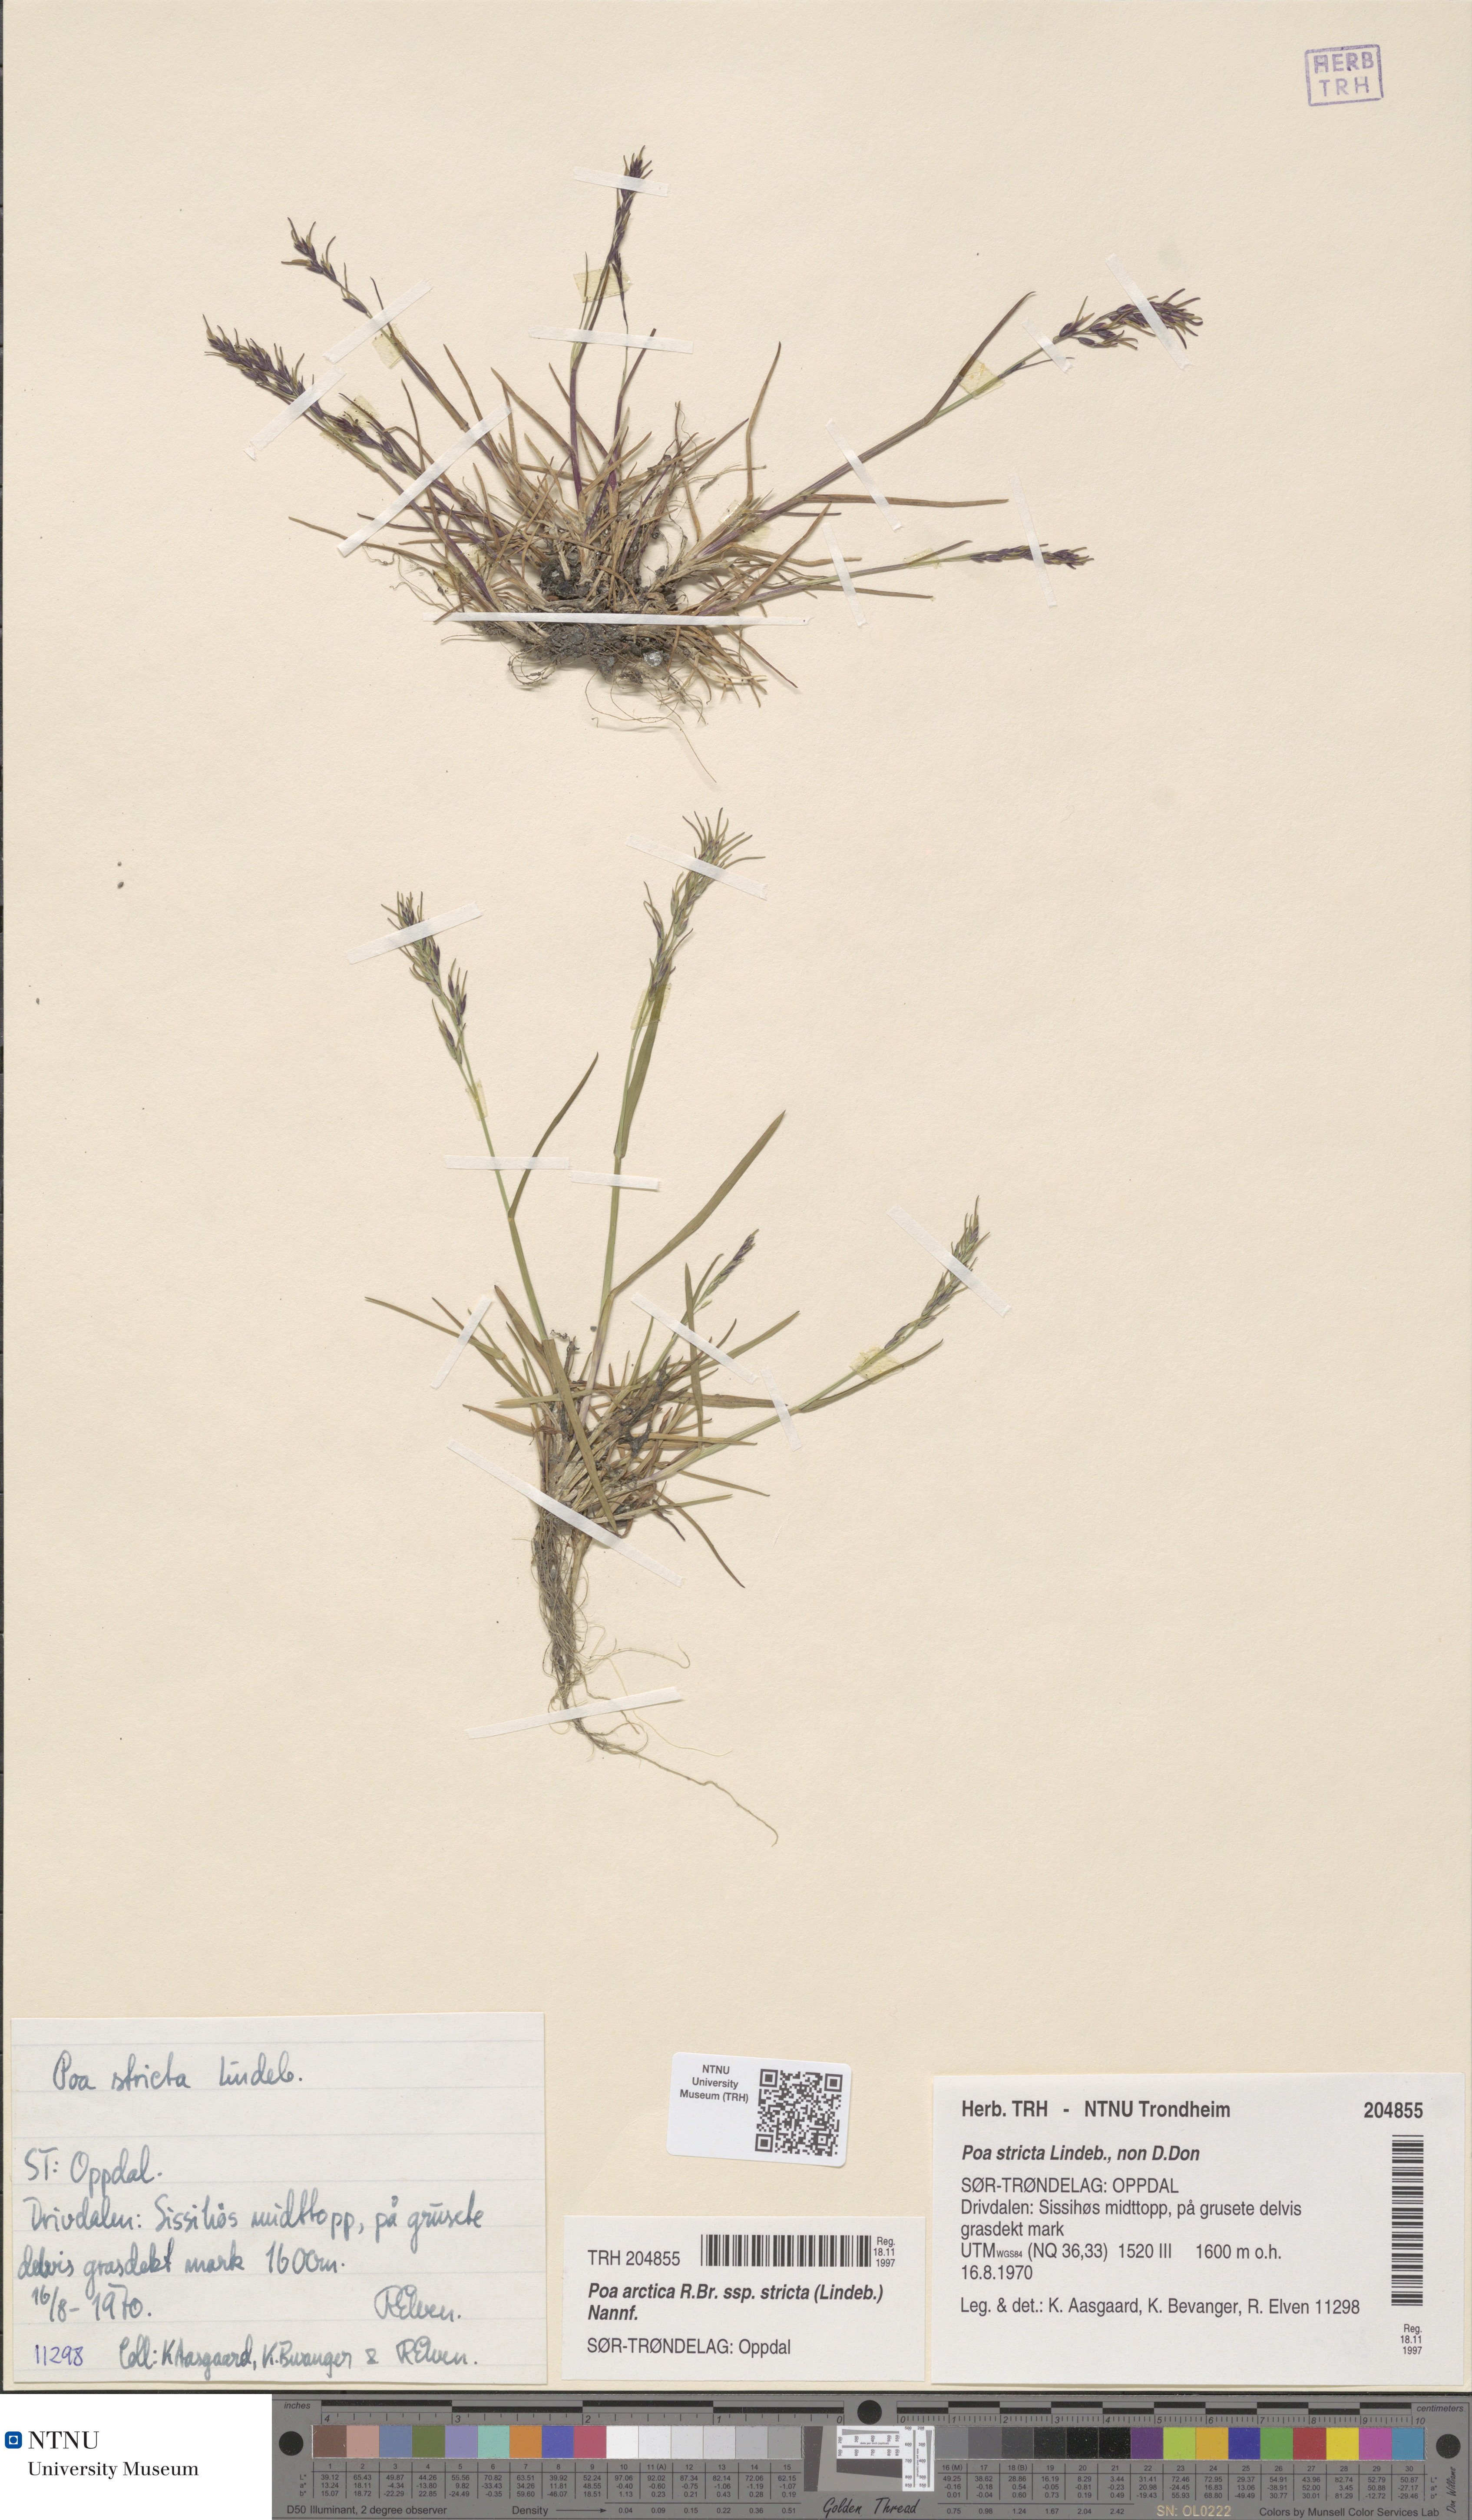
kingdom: Plantae
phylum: Tracheophyta
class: Liliopsida
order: Poales
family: Poaceae
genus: Poa
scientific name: Poa lindebergii
